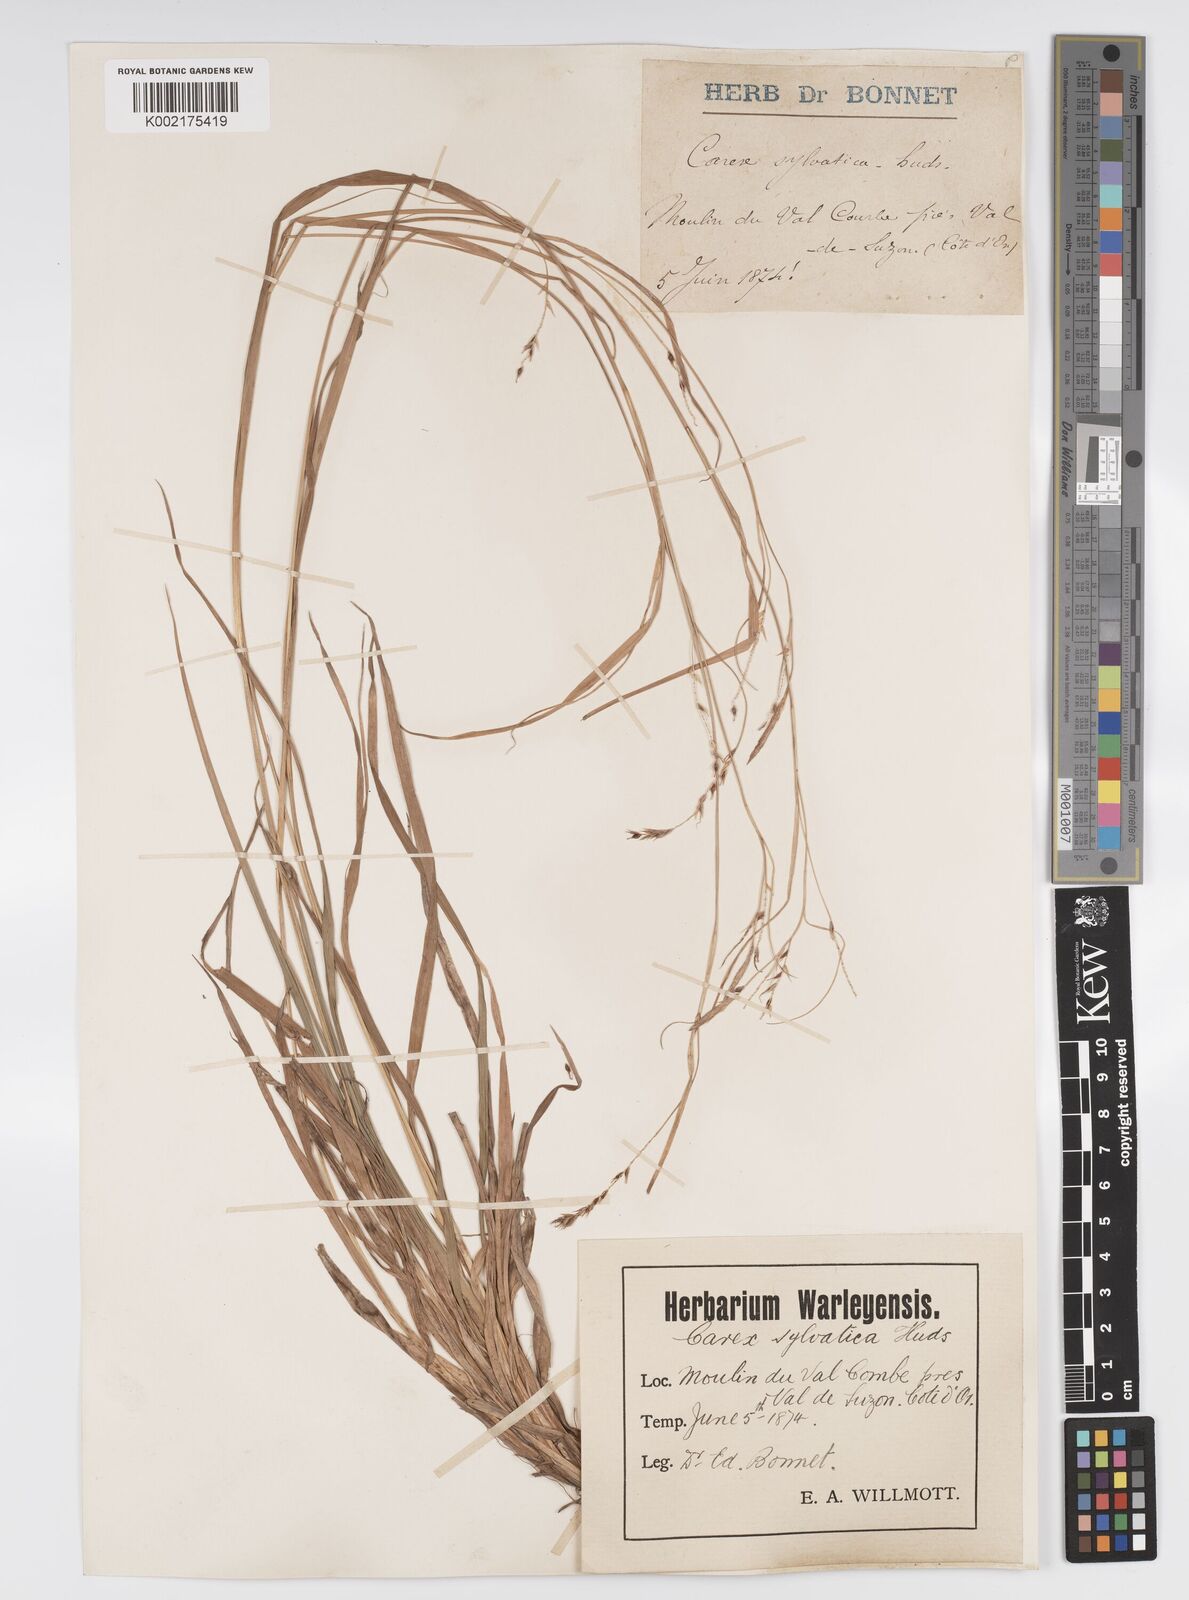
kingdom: Plantae
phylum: Tracheophyta
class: Liliopsida
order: Poales
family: Cyperaceae
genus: Carex
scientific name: Carex sylvatica
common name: Wood-sedge
